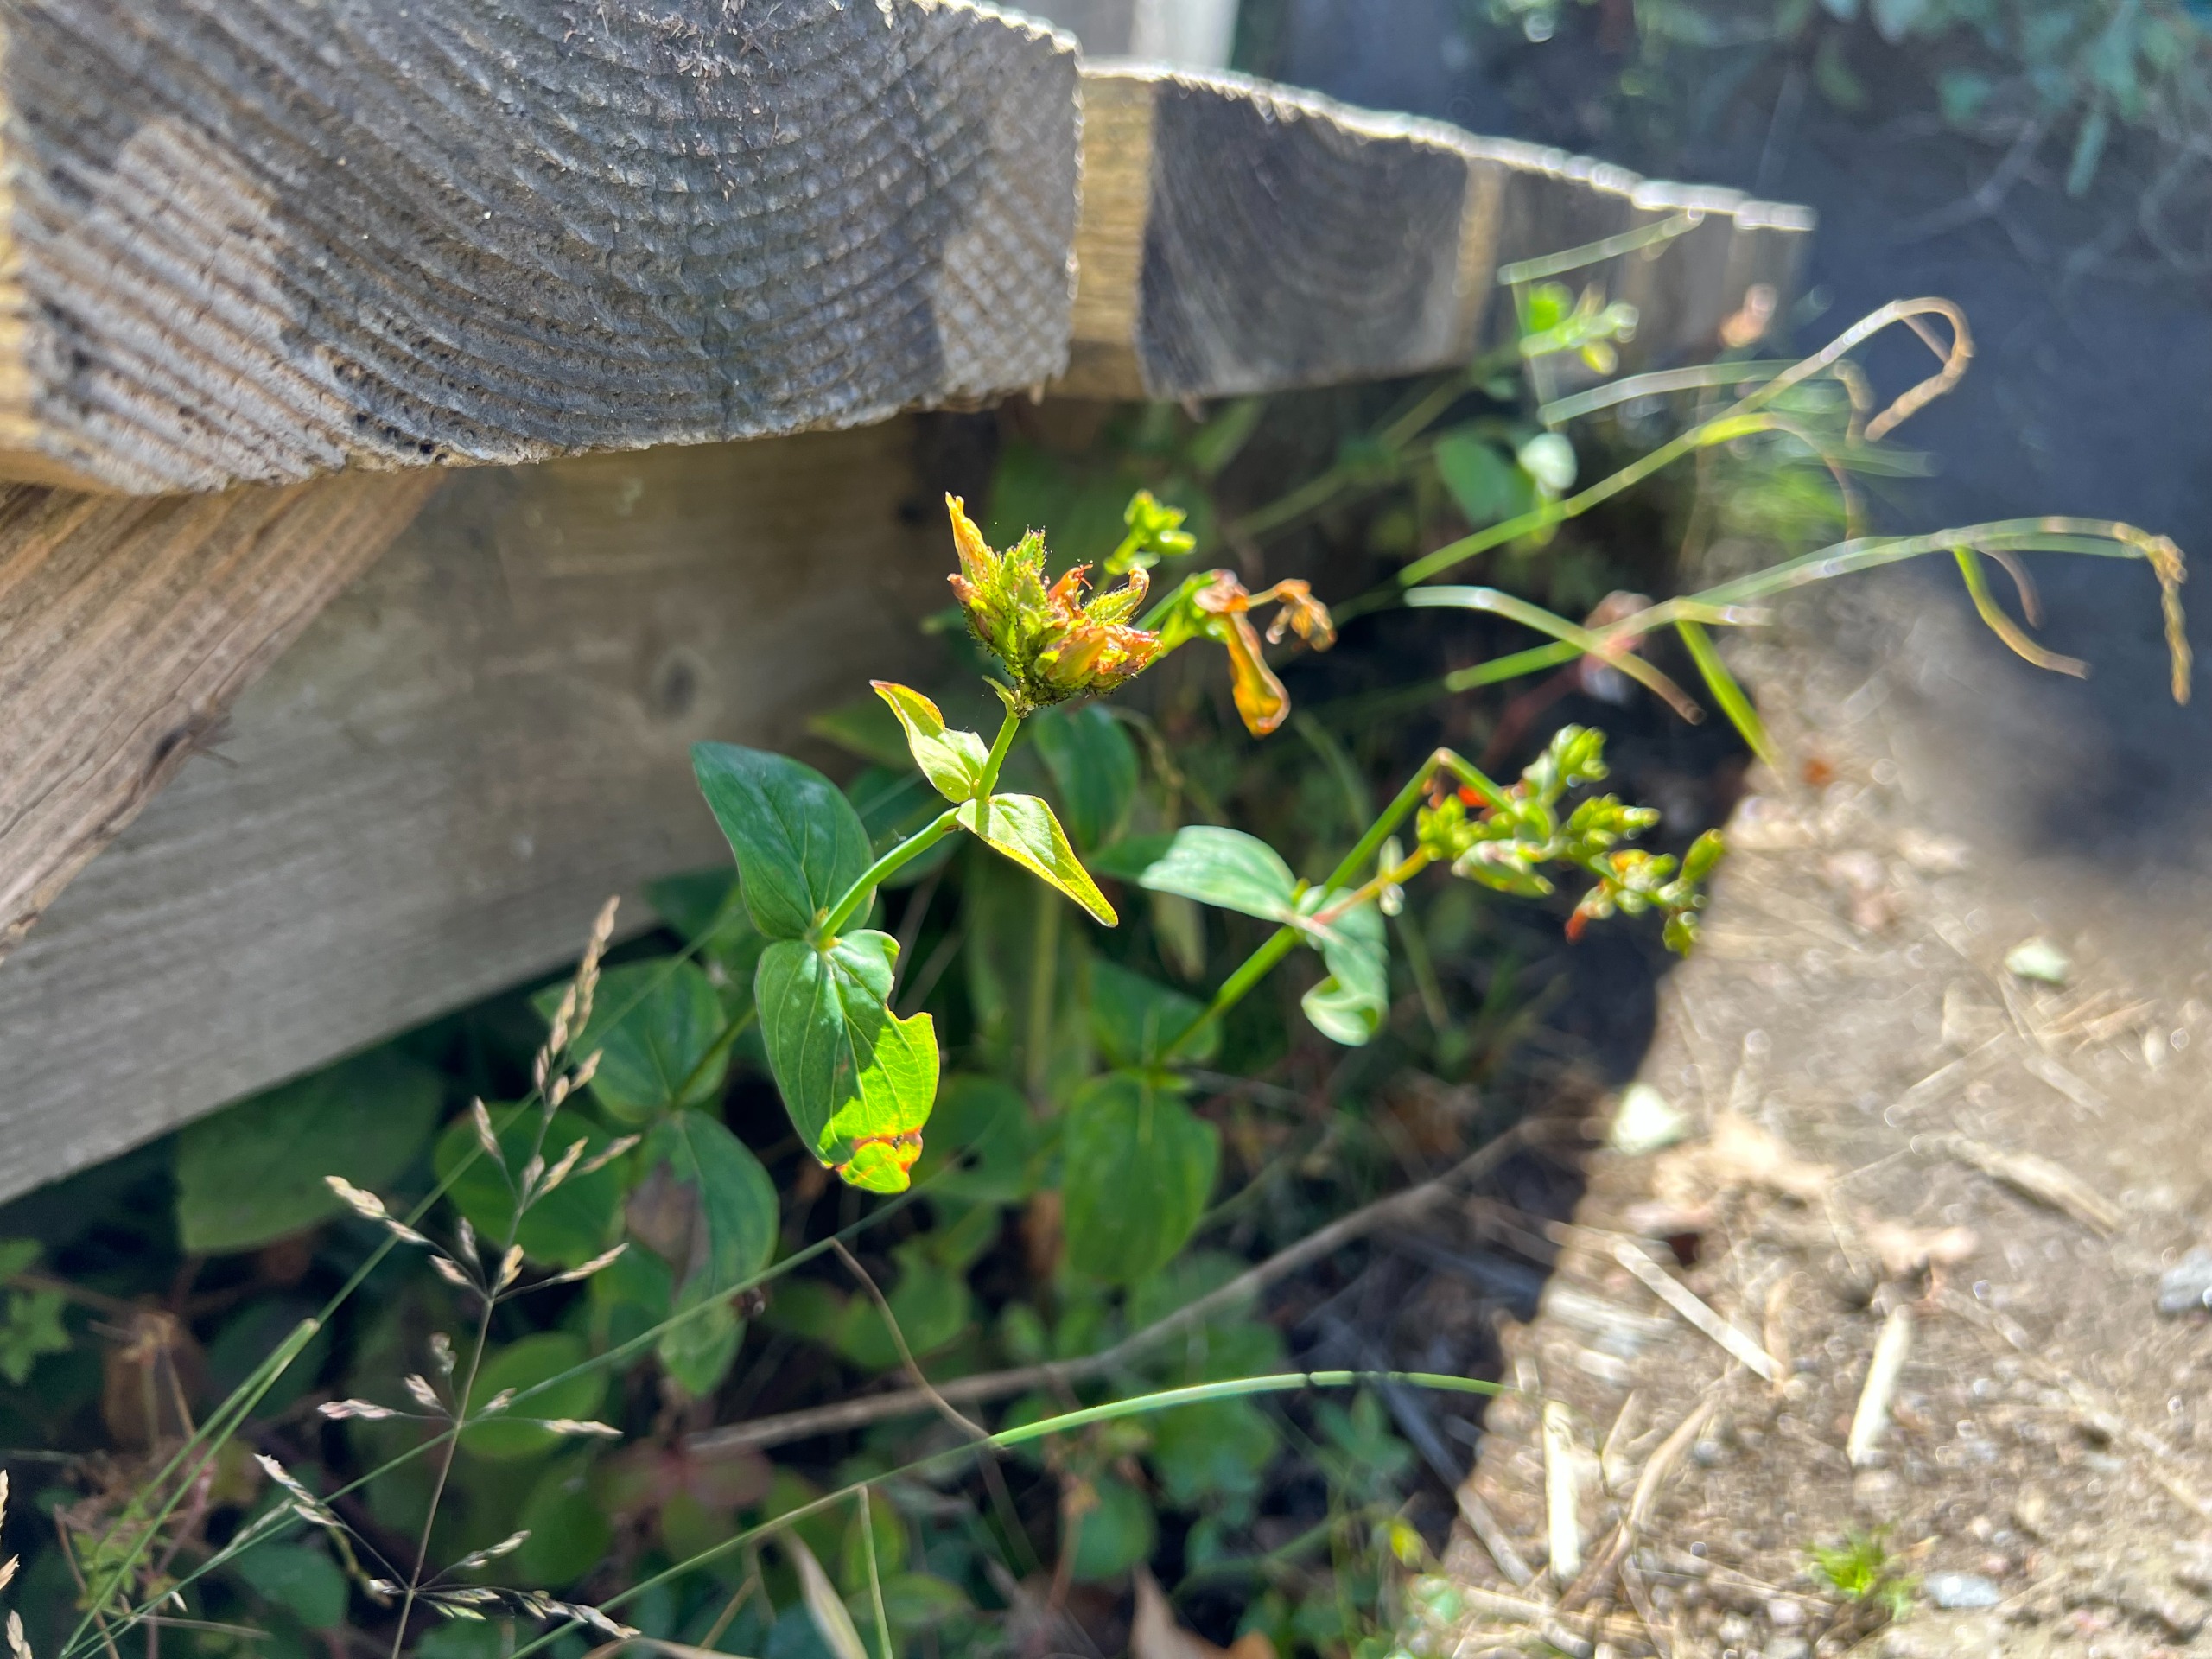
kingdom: Plantae
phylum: Tracheophyta
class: Magnoliopsida
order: Malpighiales
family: Hypericaceae
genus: Hypericum
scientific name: Hypericum montanum
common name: Bjerg-perikon
